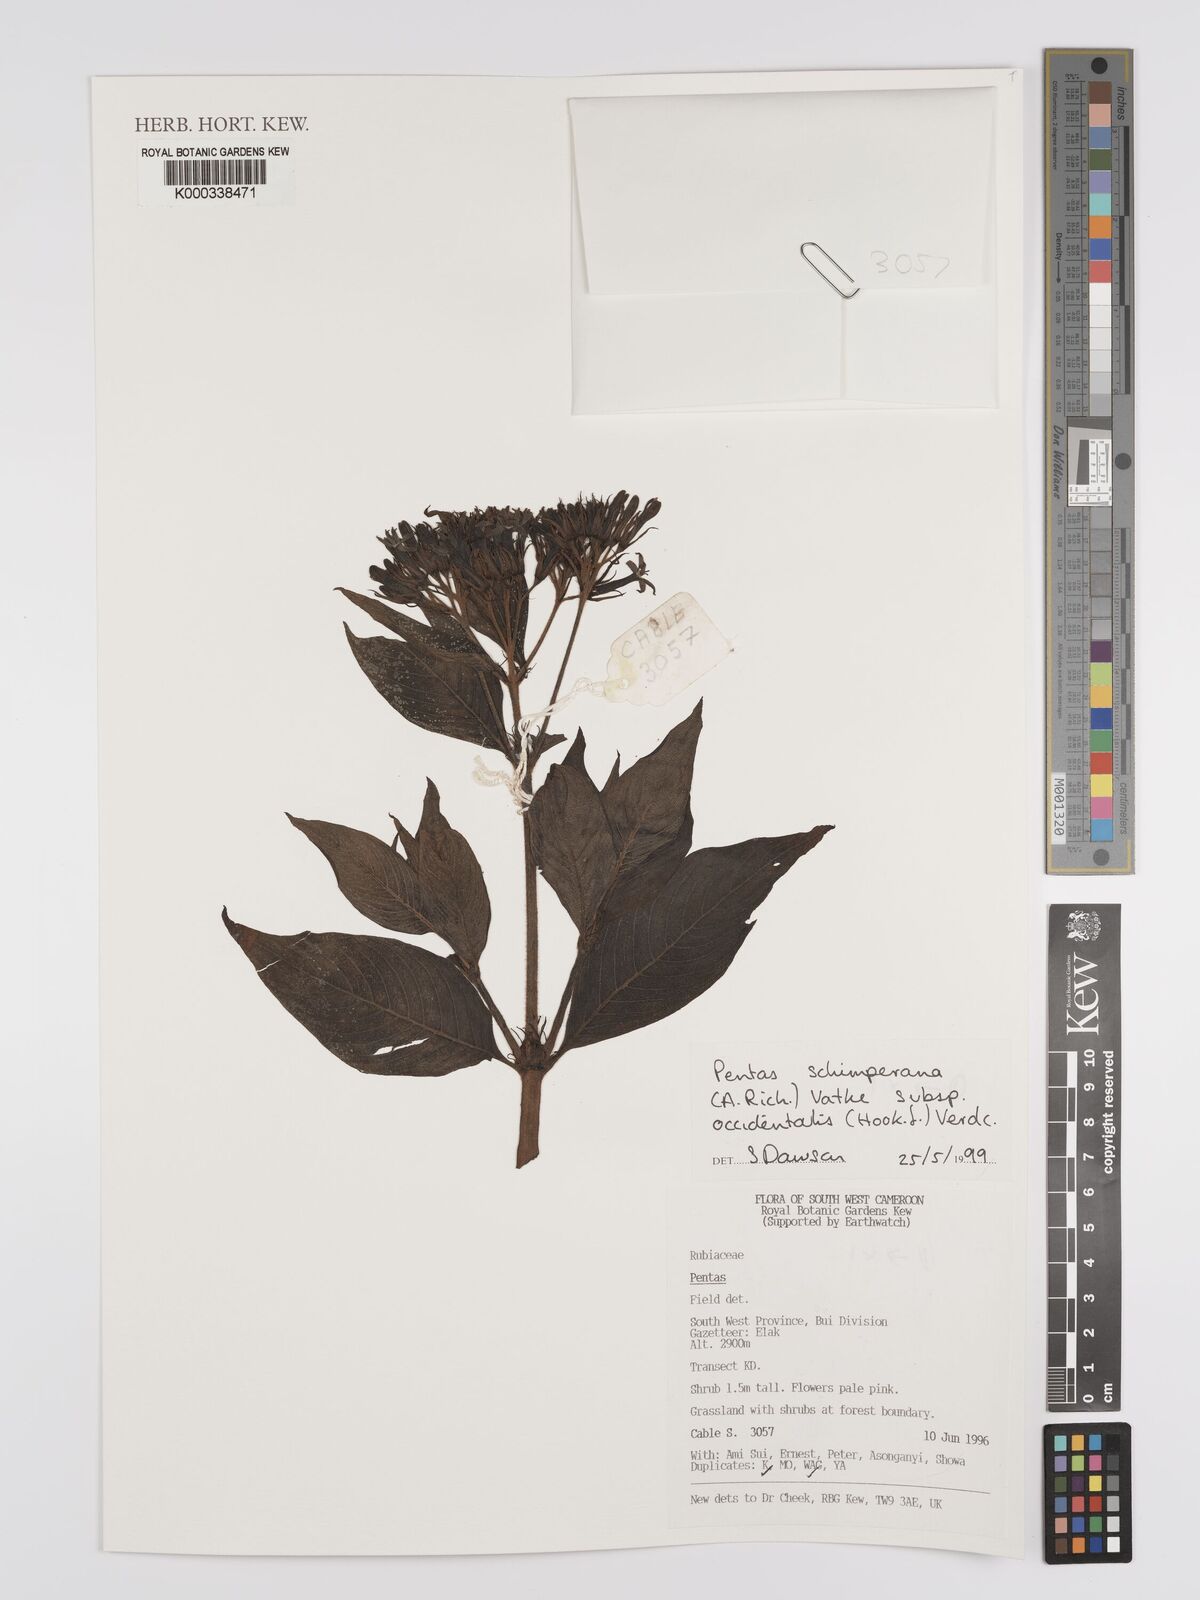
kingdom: Plantae
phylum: Tracheophyta
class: Magnoliopsida
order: Gentianales
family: Rubiaceae
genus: Phyllopentas
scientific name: Phyllopentas schimperi
